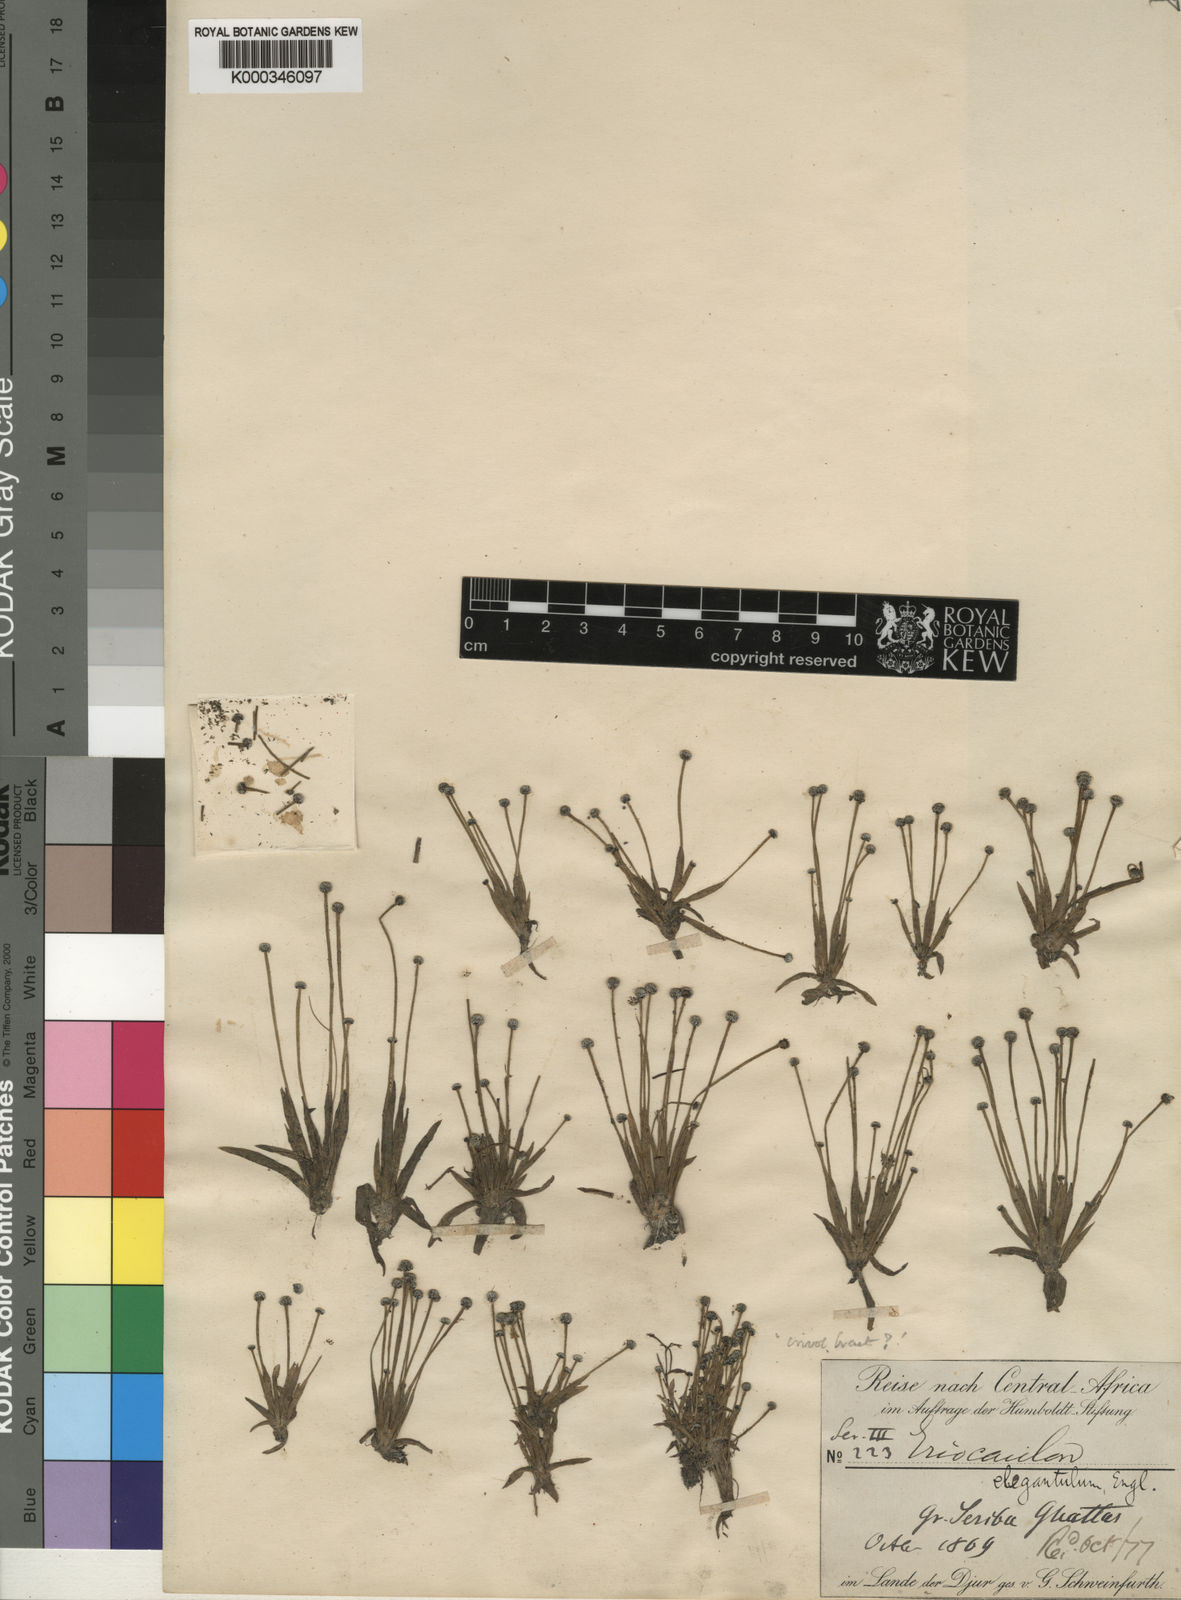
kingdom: Plantae
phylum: Tracheophyta
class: Liliopsida
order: Poales
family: Eriocaulaceae
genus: Eriocaulon
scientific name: Eriocaulon elegantulum
